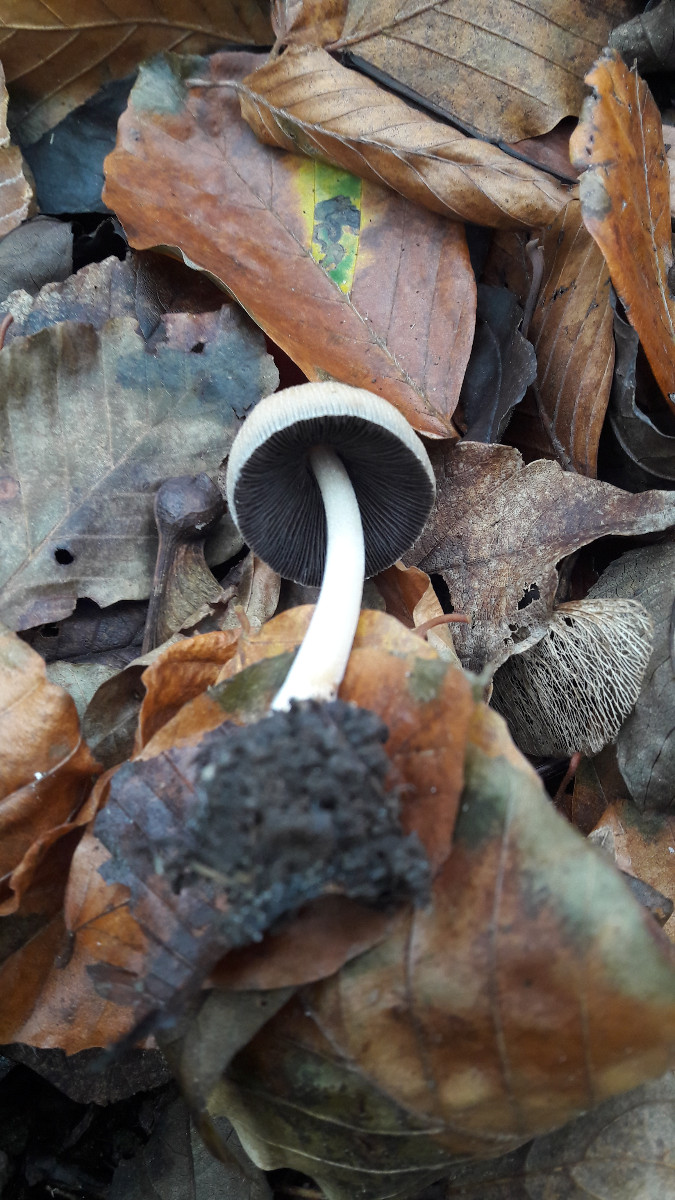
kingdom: Fungi
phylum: Basidiomycota
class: Agaricomycetes
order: Agaricales
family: Psathyrellaceae
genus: Coprinellus
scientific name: Coprinellus micaceus
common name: glimmer-blækhat
